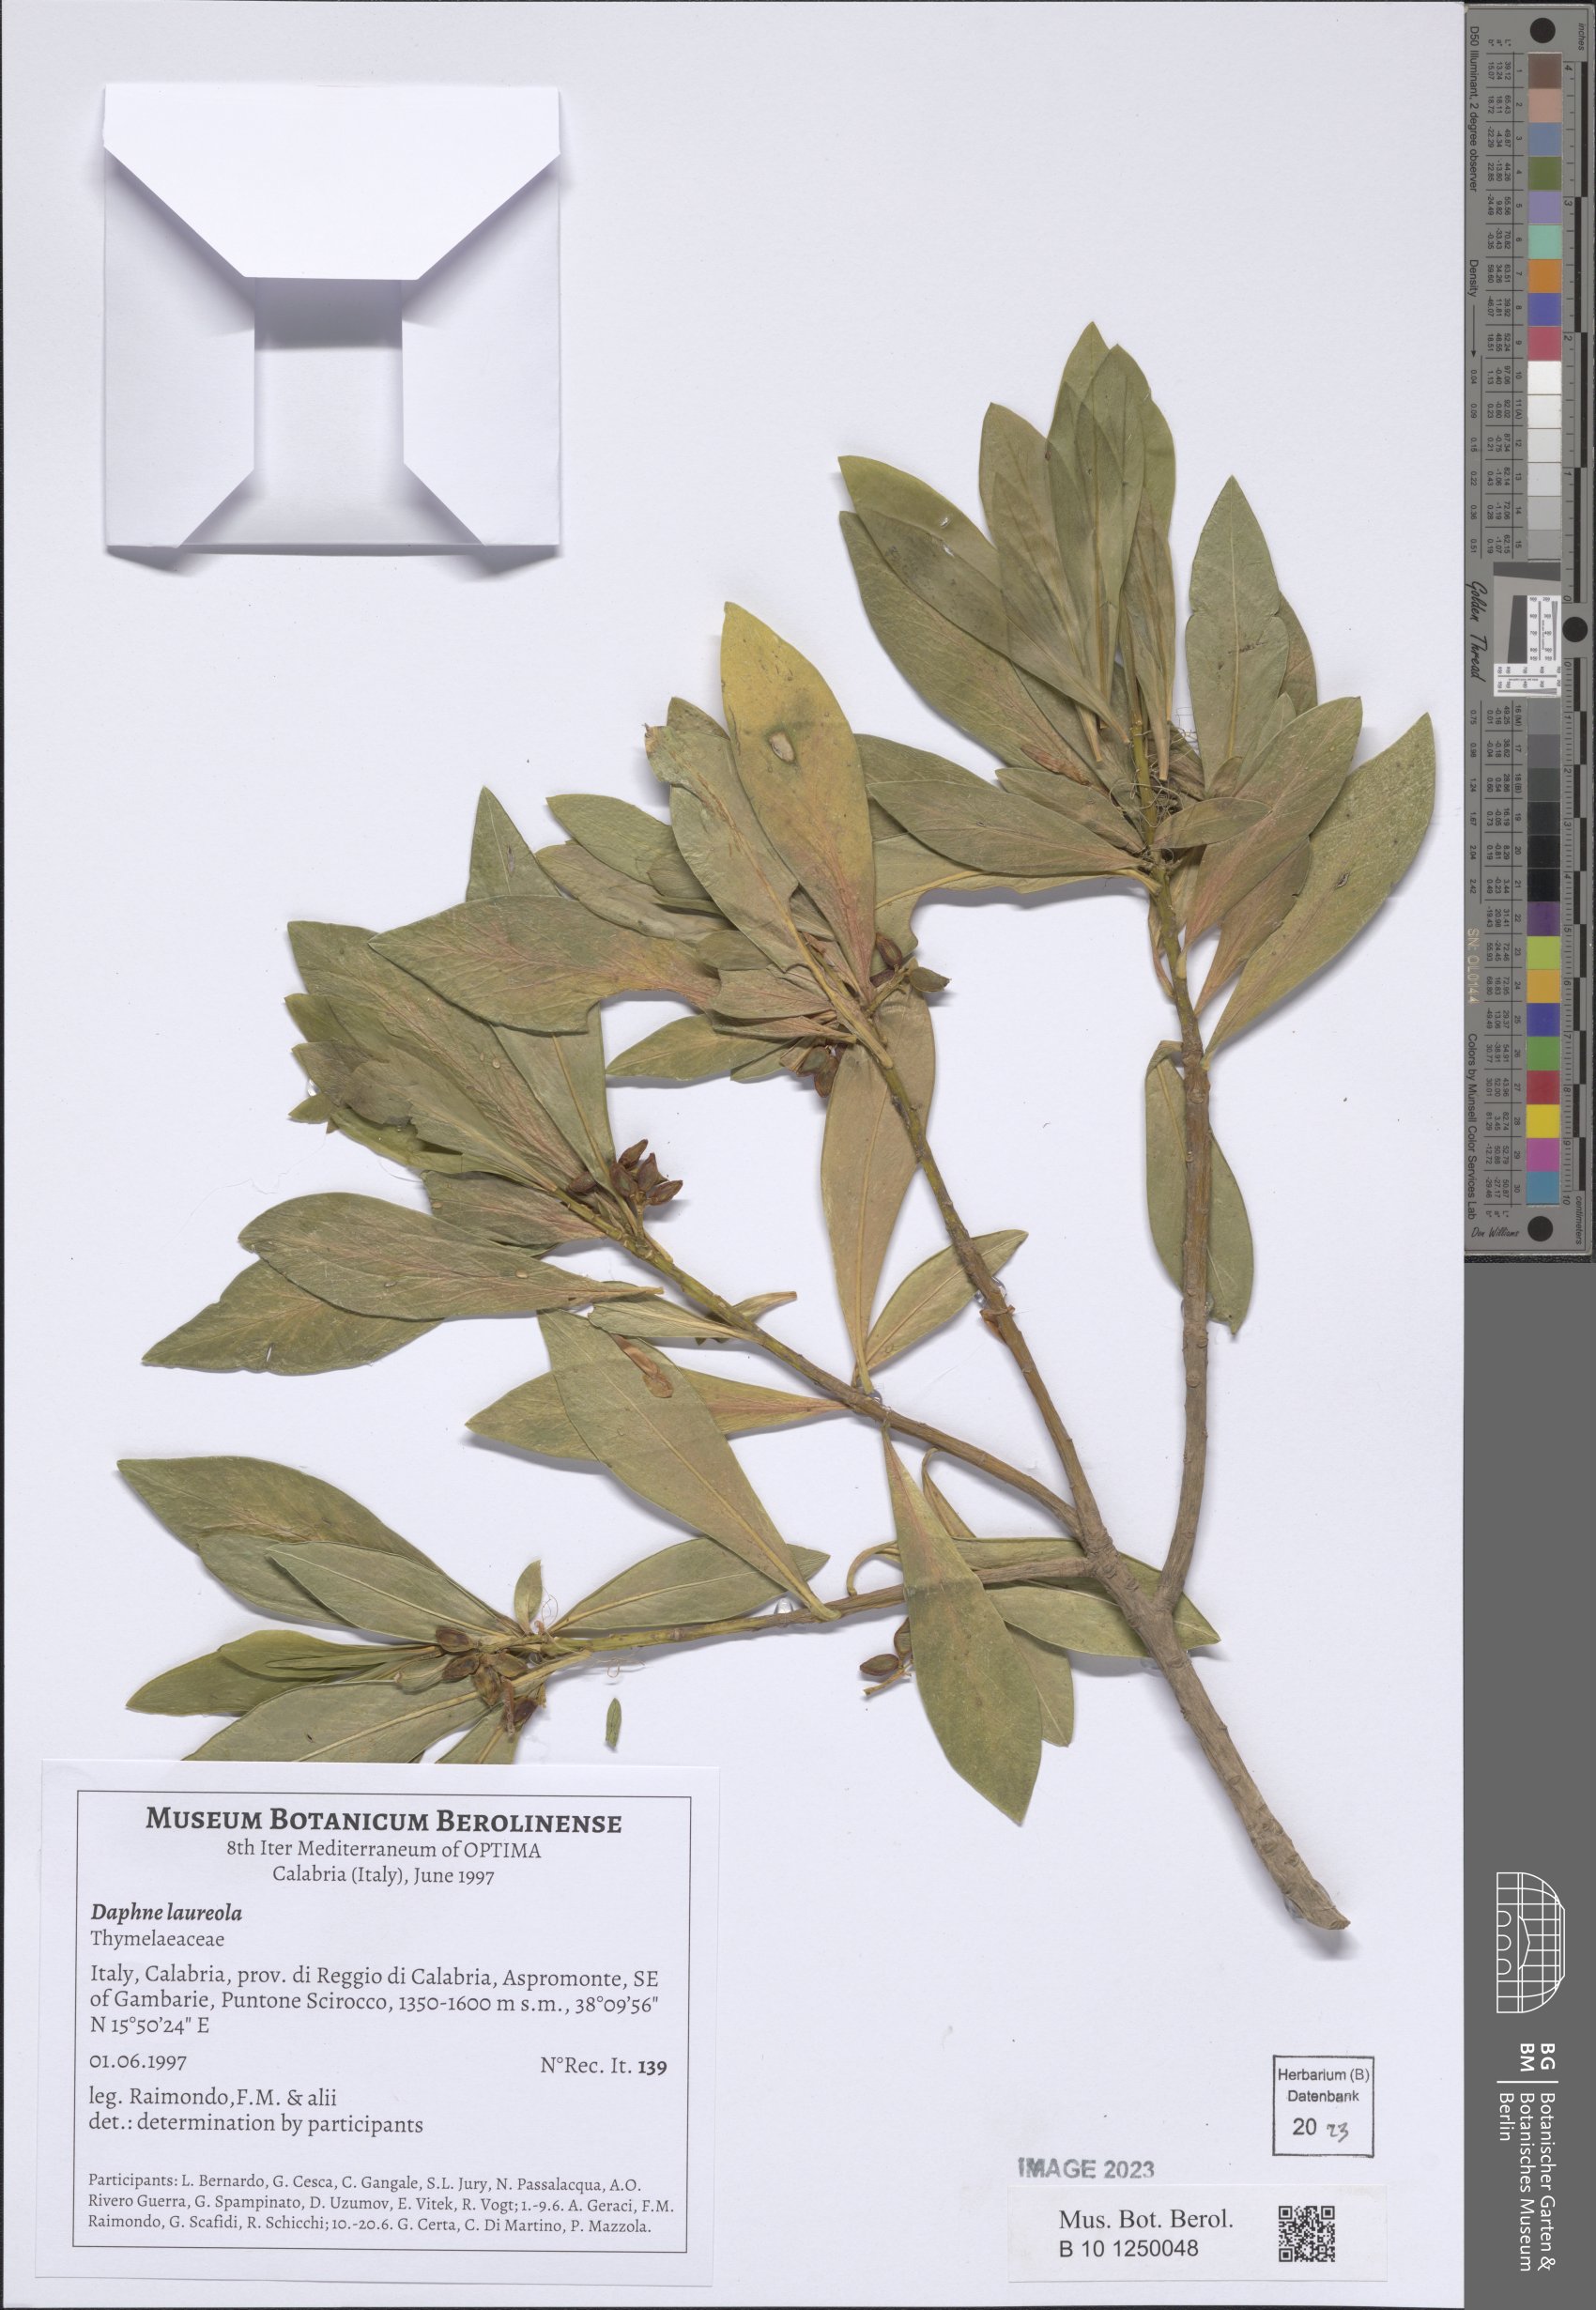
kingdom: Plantae
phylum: Tracheophyta
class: Magnoliopsida
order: Malvales
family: Thymelaeaceae
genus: Daphne
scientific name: Daphne laureola
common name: Spurge-laurel
